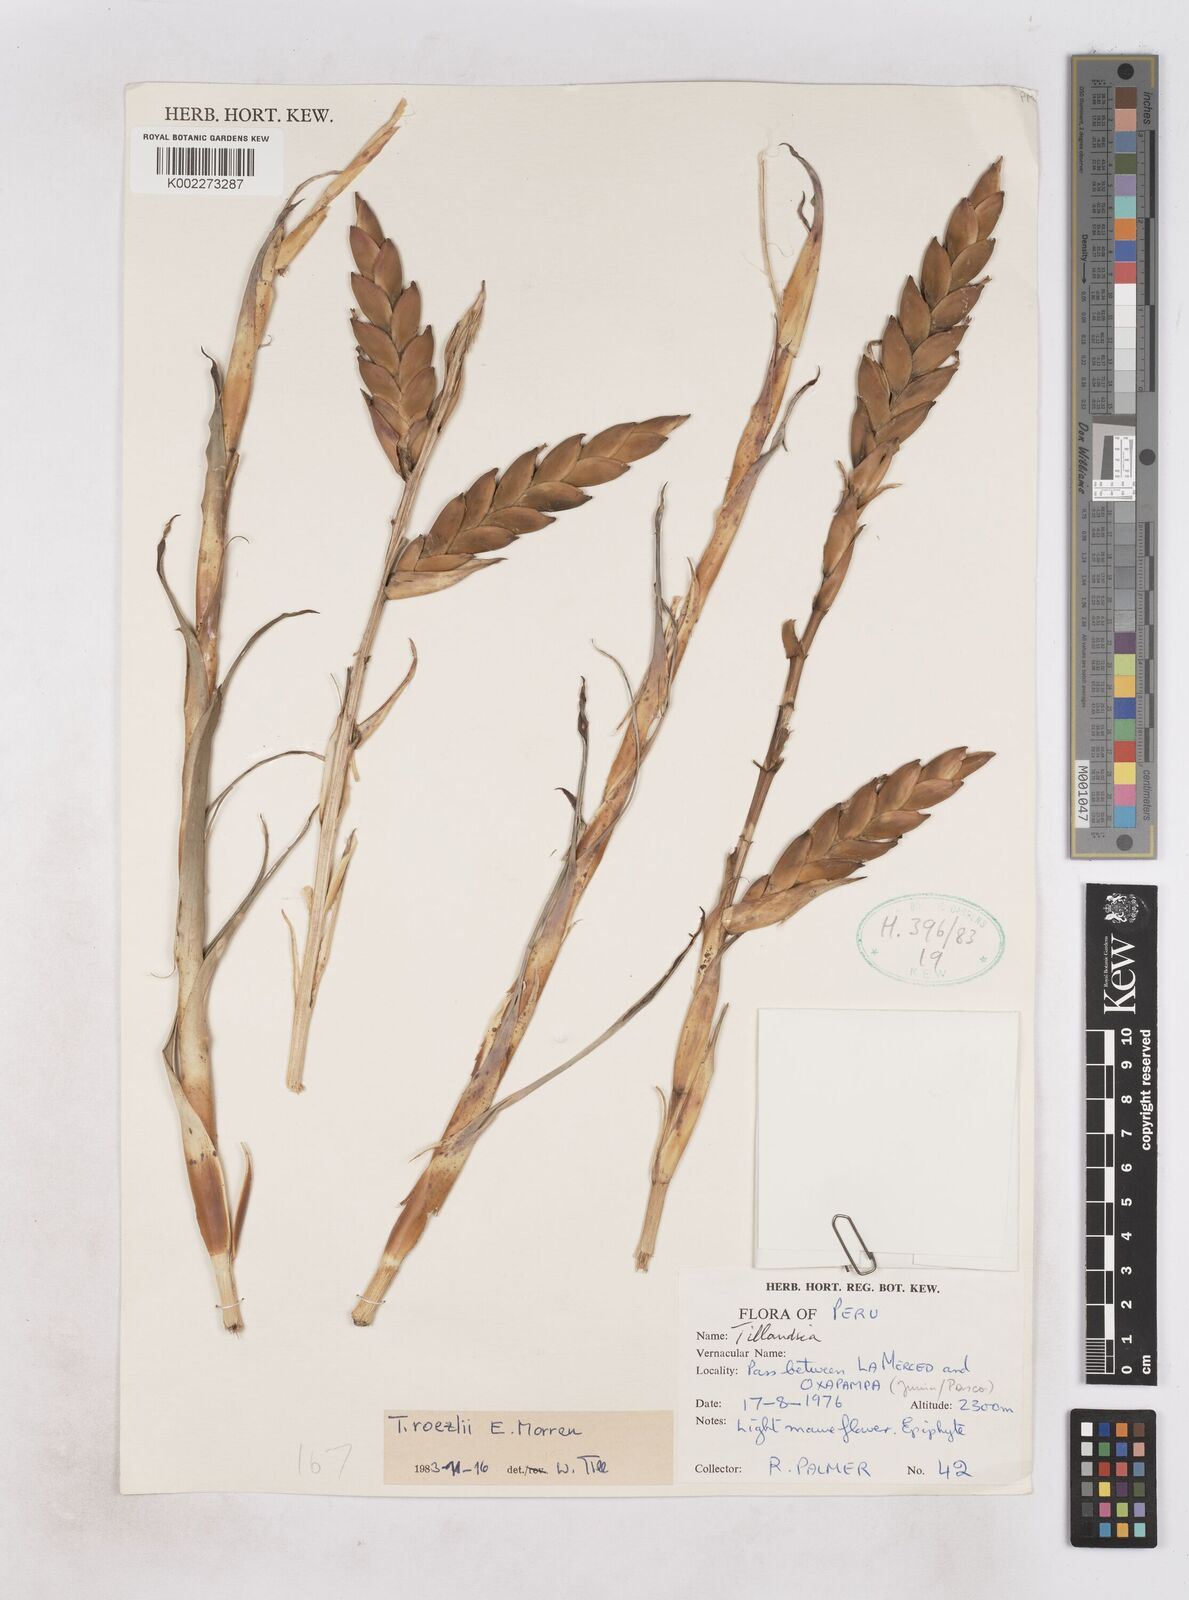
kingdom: Plantae
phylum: Tracheophyta
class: Liliopsida
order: Poales
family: Bromeliaceae
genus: Tillandsia
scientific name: Tillandsia
